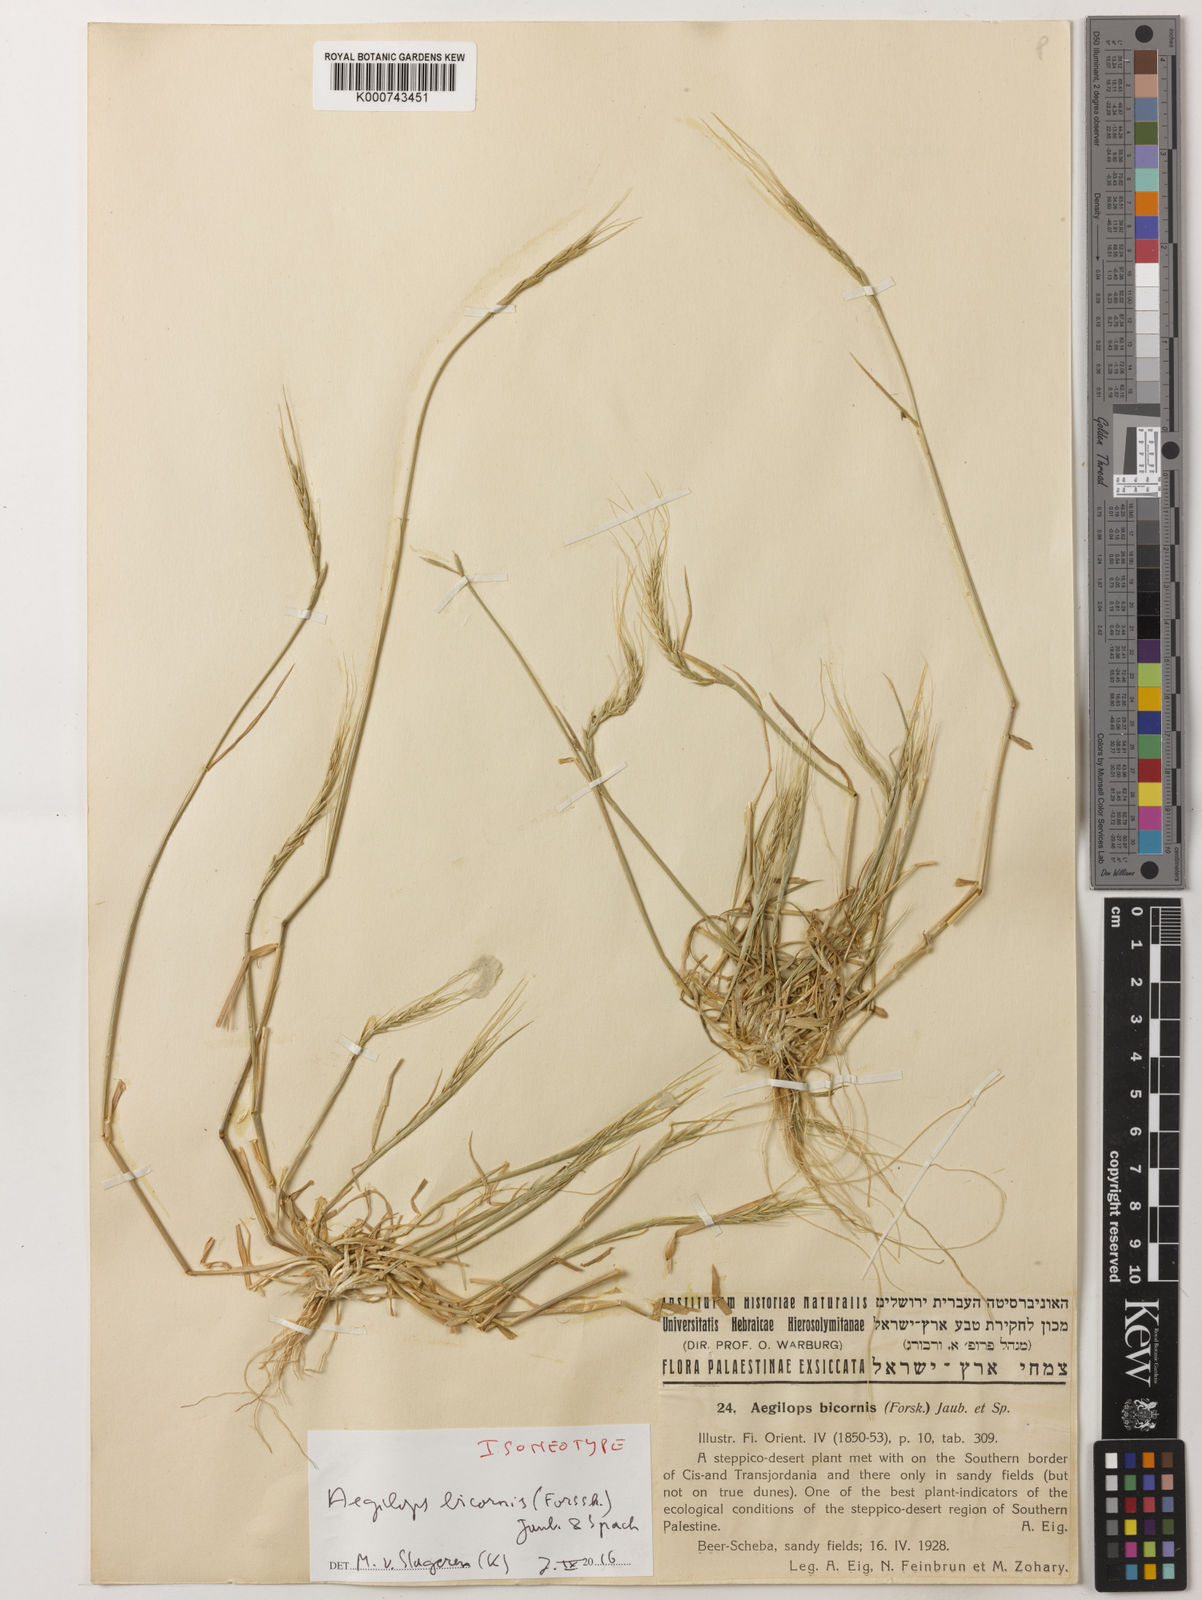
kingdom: Plantae
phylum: Tracheophyta
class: Liliopsida
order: Poales
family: Poaceae
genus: Aegilops
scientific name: Aegilops bicornis
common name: Goat grass
